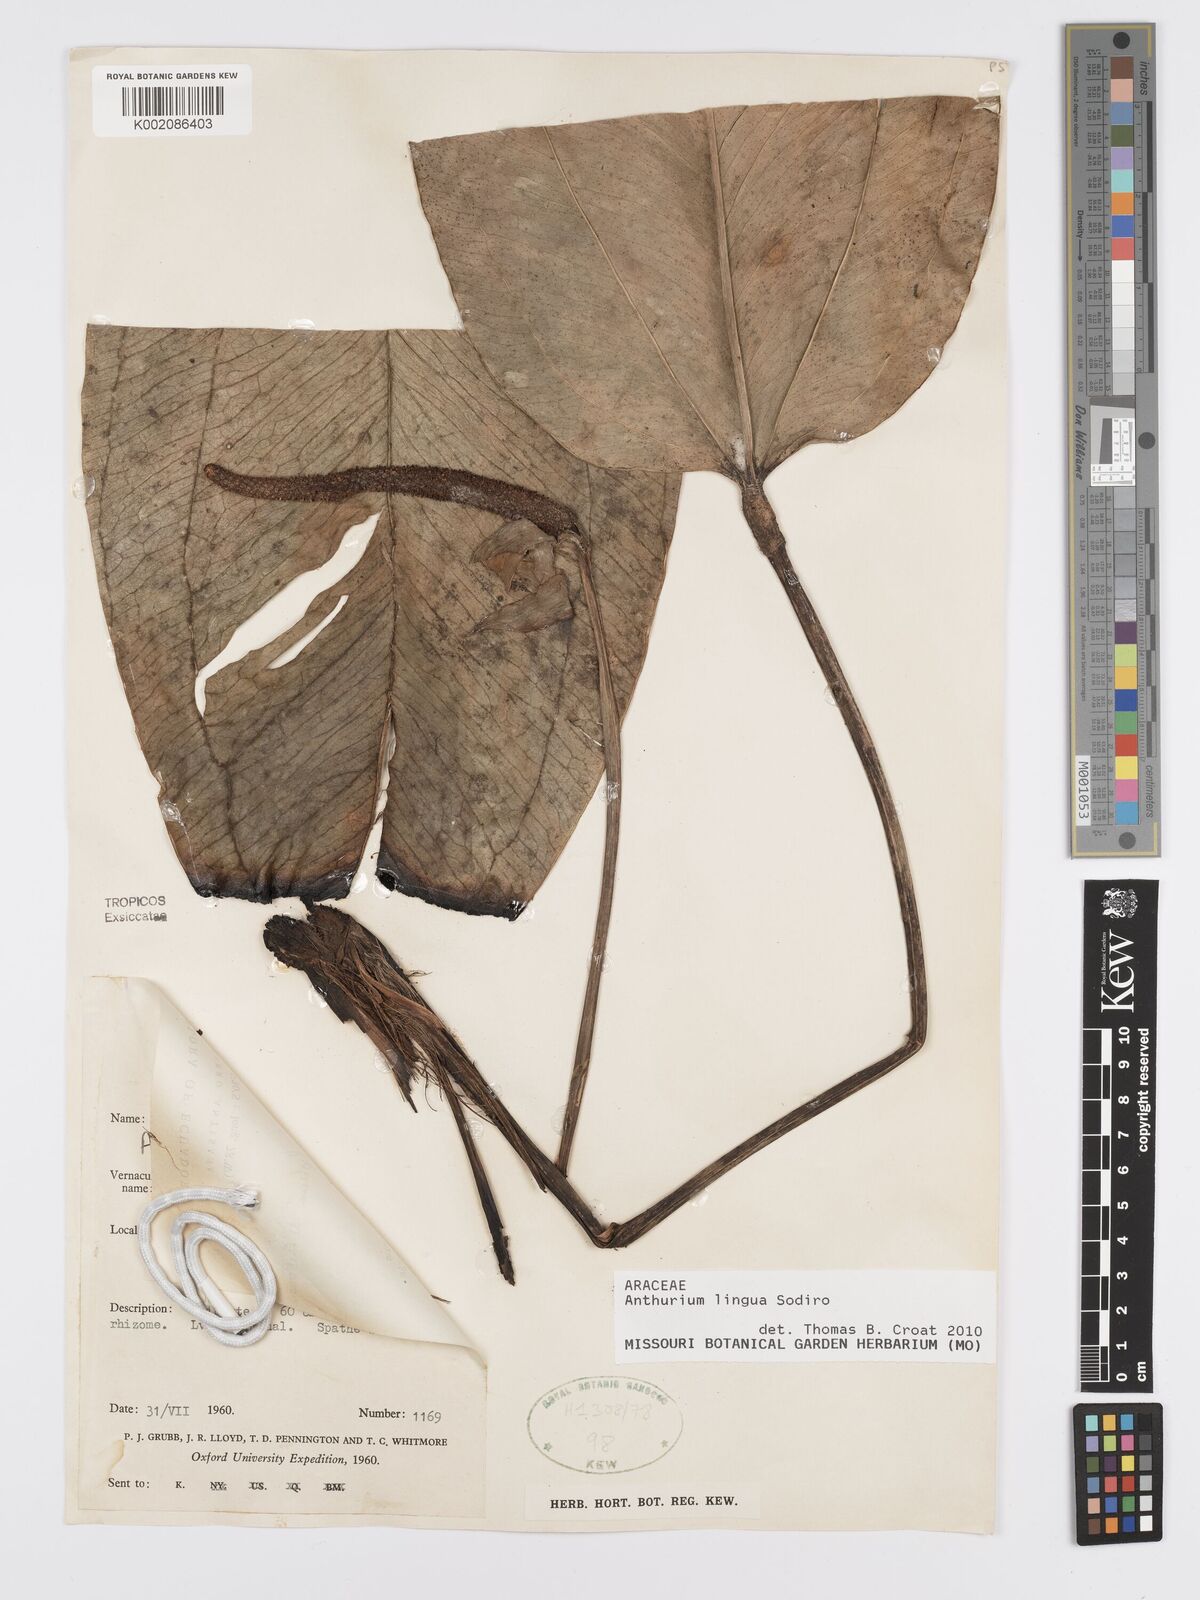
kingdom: Plantae
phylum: Tracheophyta
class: Liliopsida
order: Alismatales
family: Araceae
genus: Anthurium
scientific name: Anthurium lingua
